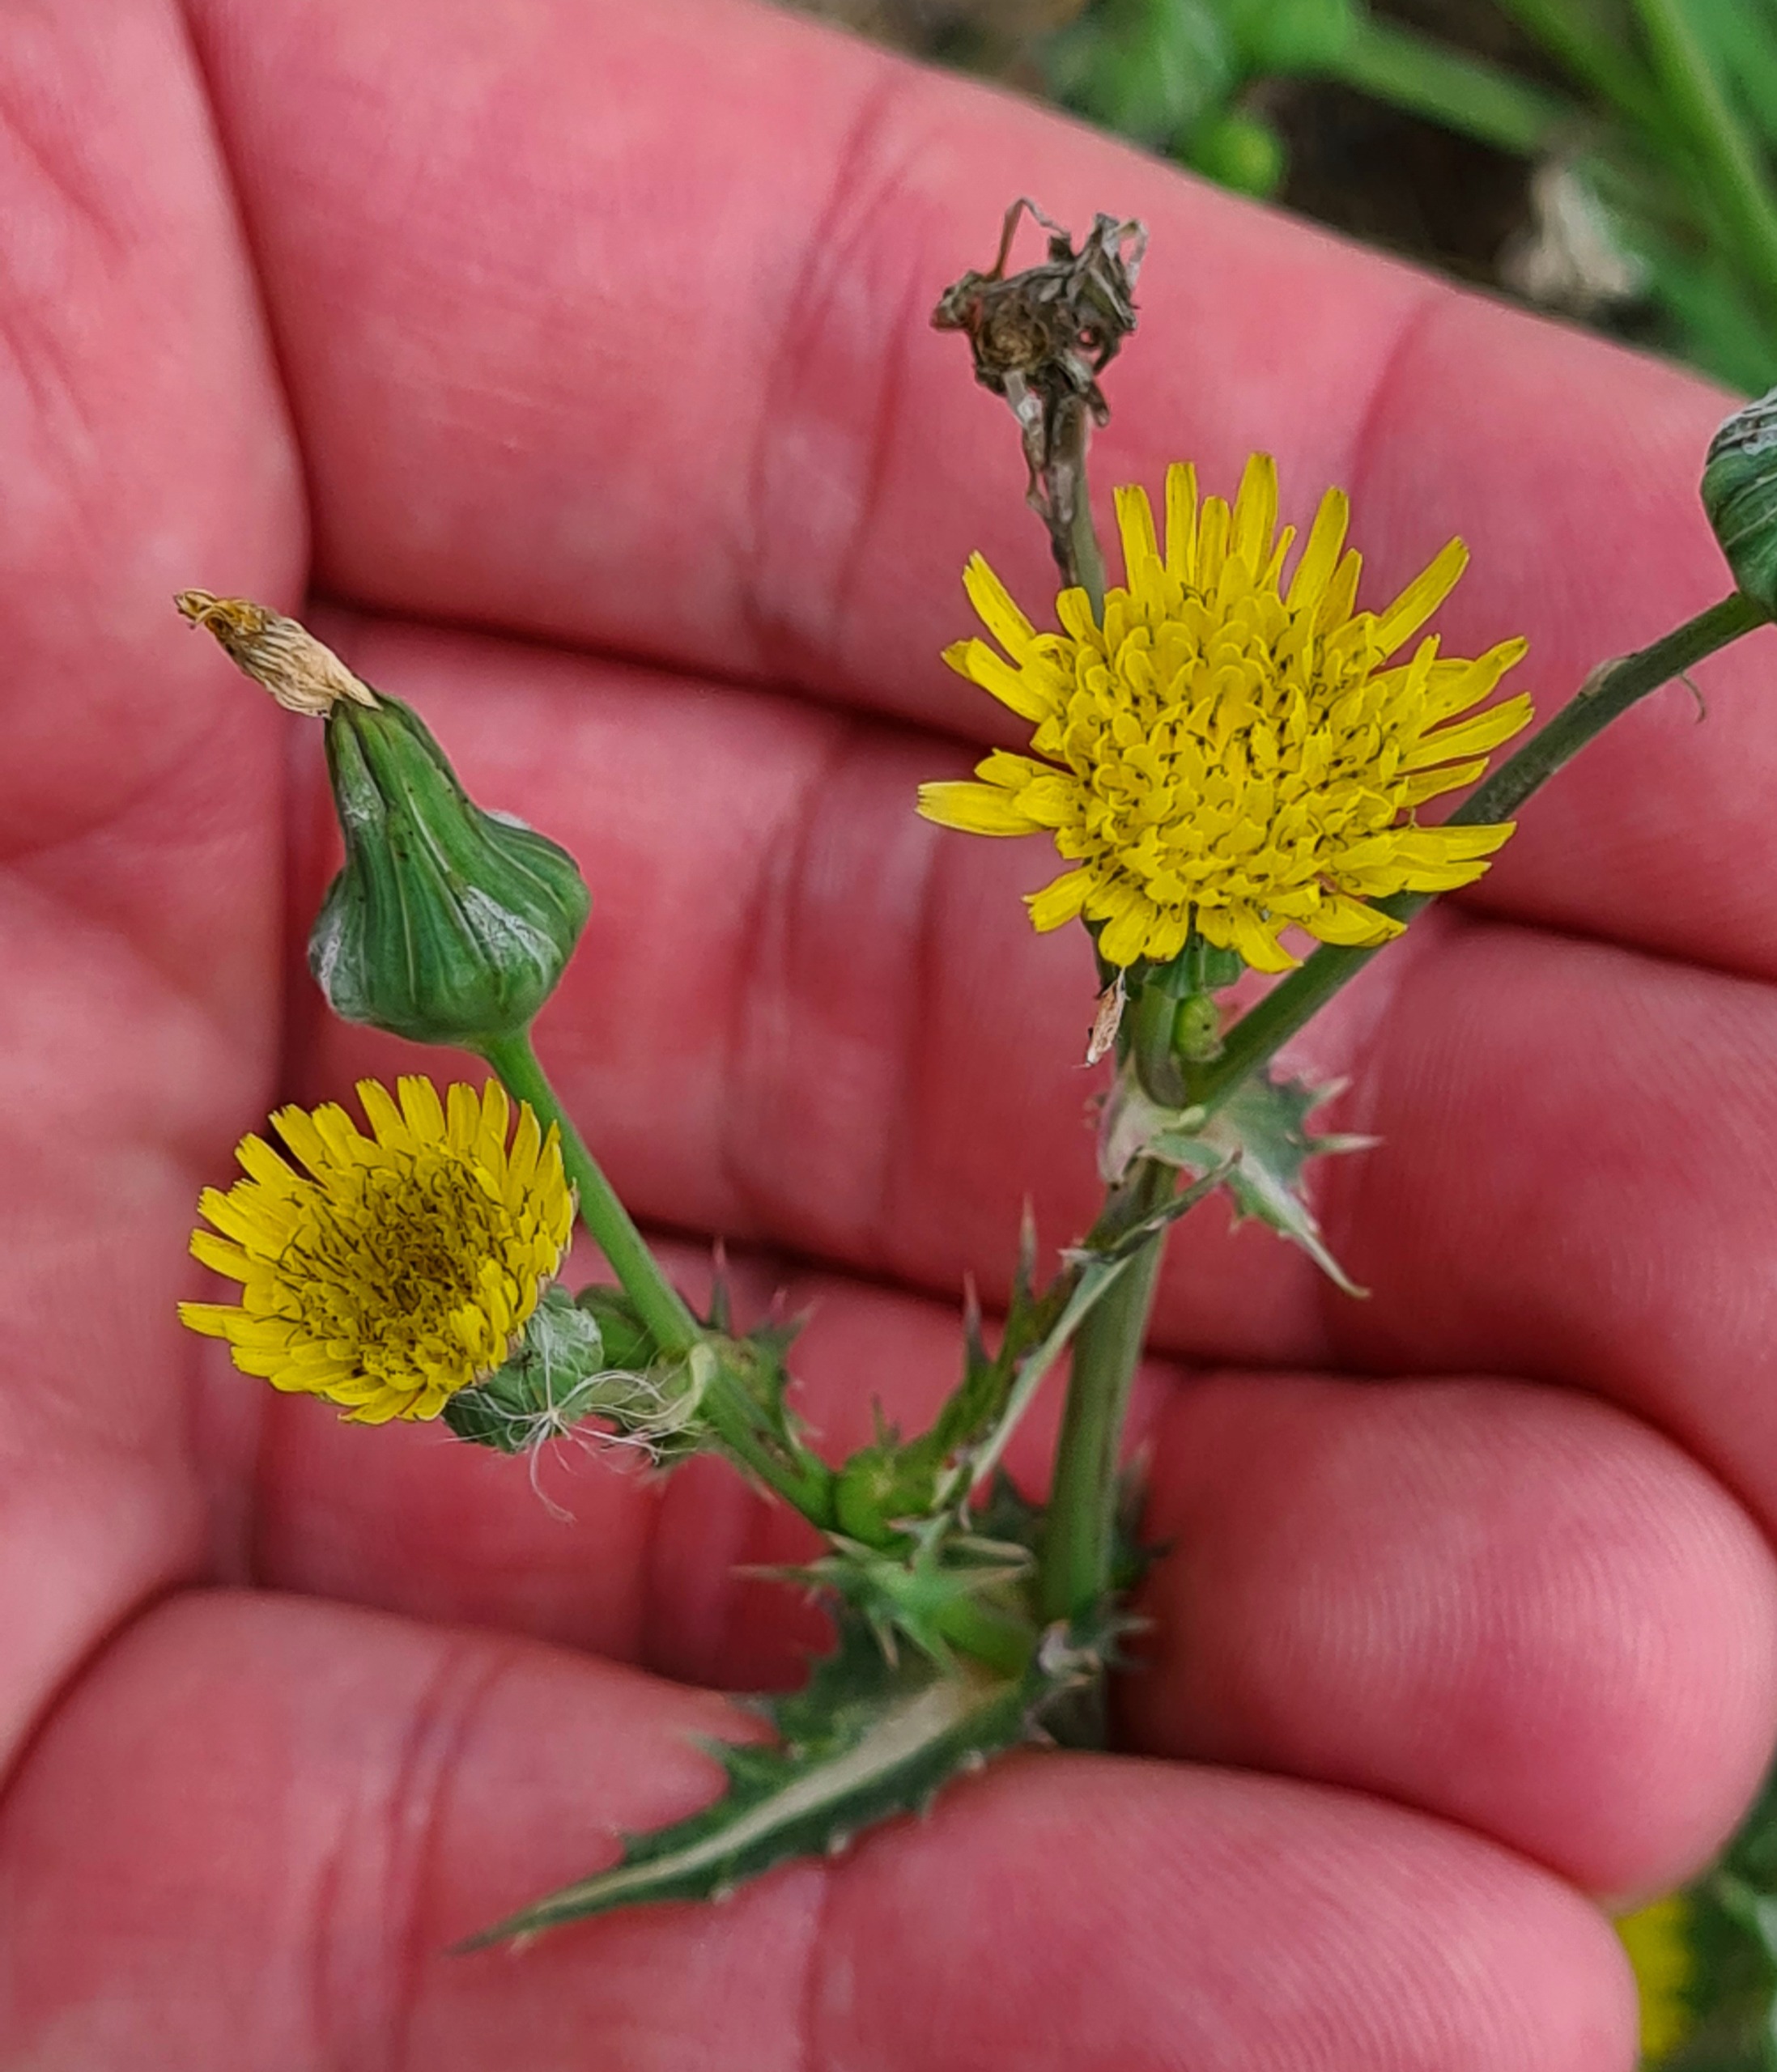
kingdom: Plantae
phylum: Tracheophyta
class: Magnoliopsida
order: Asterales
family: Asteraceae
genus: Sonchus
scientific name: Sonchus asper
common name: Ru svinemælk
